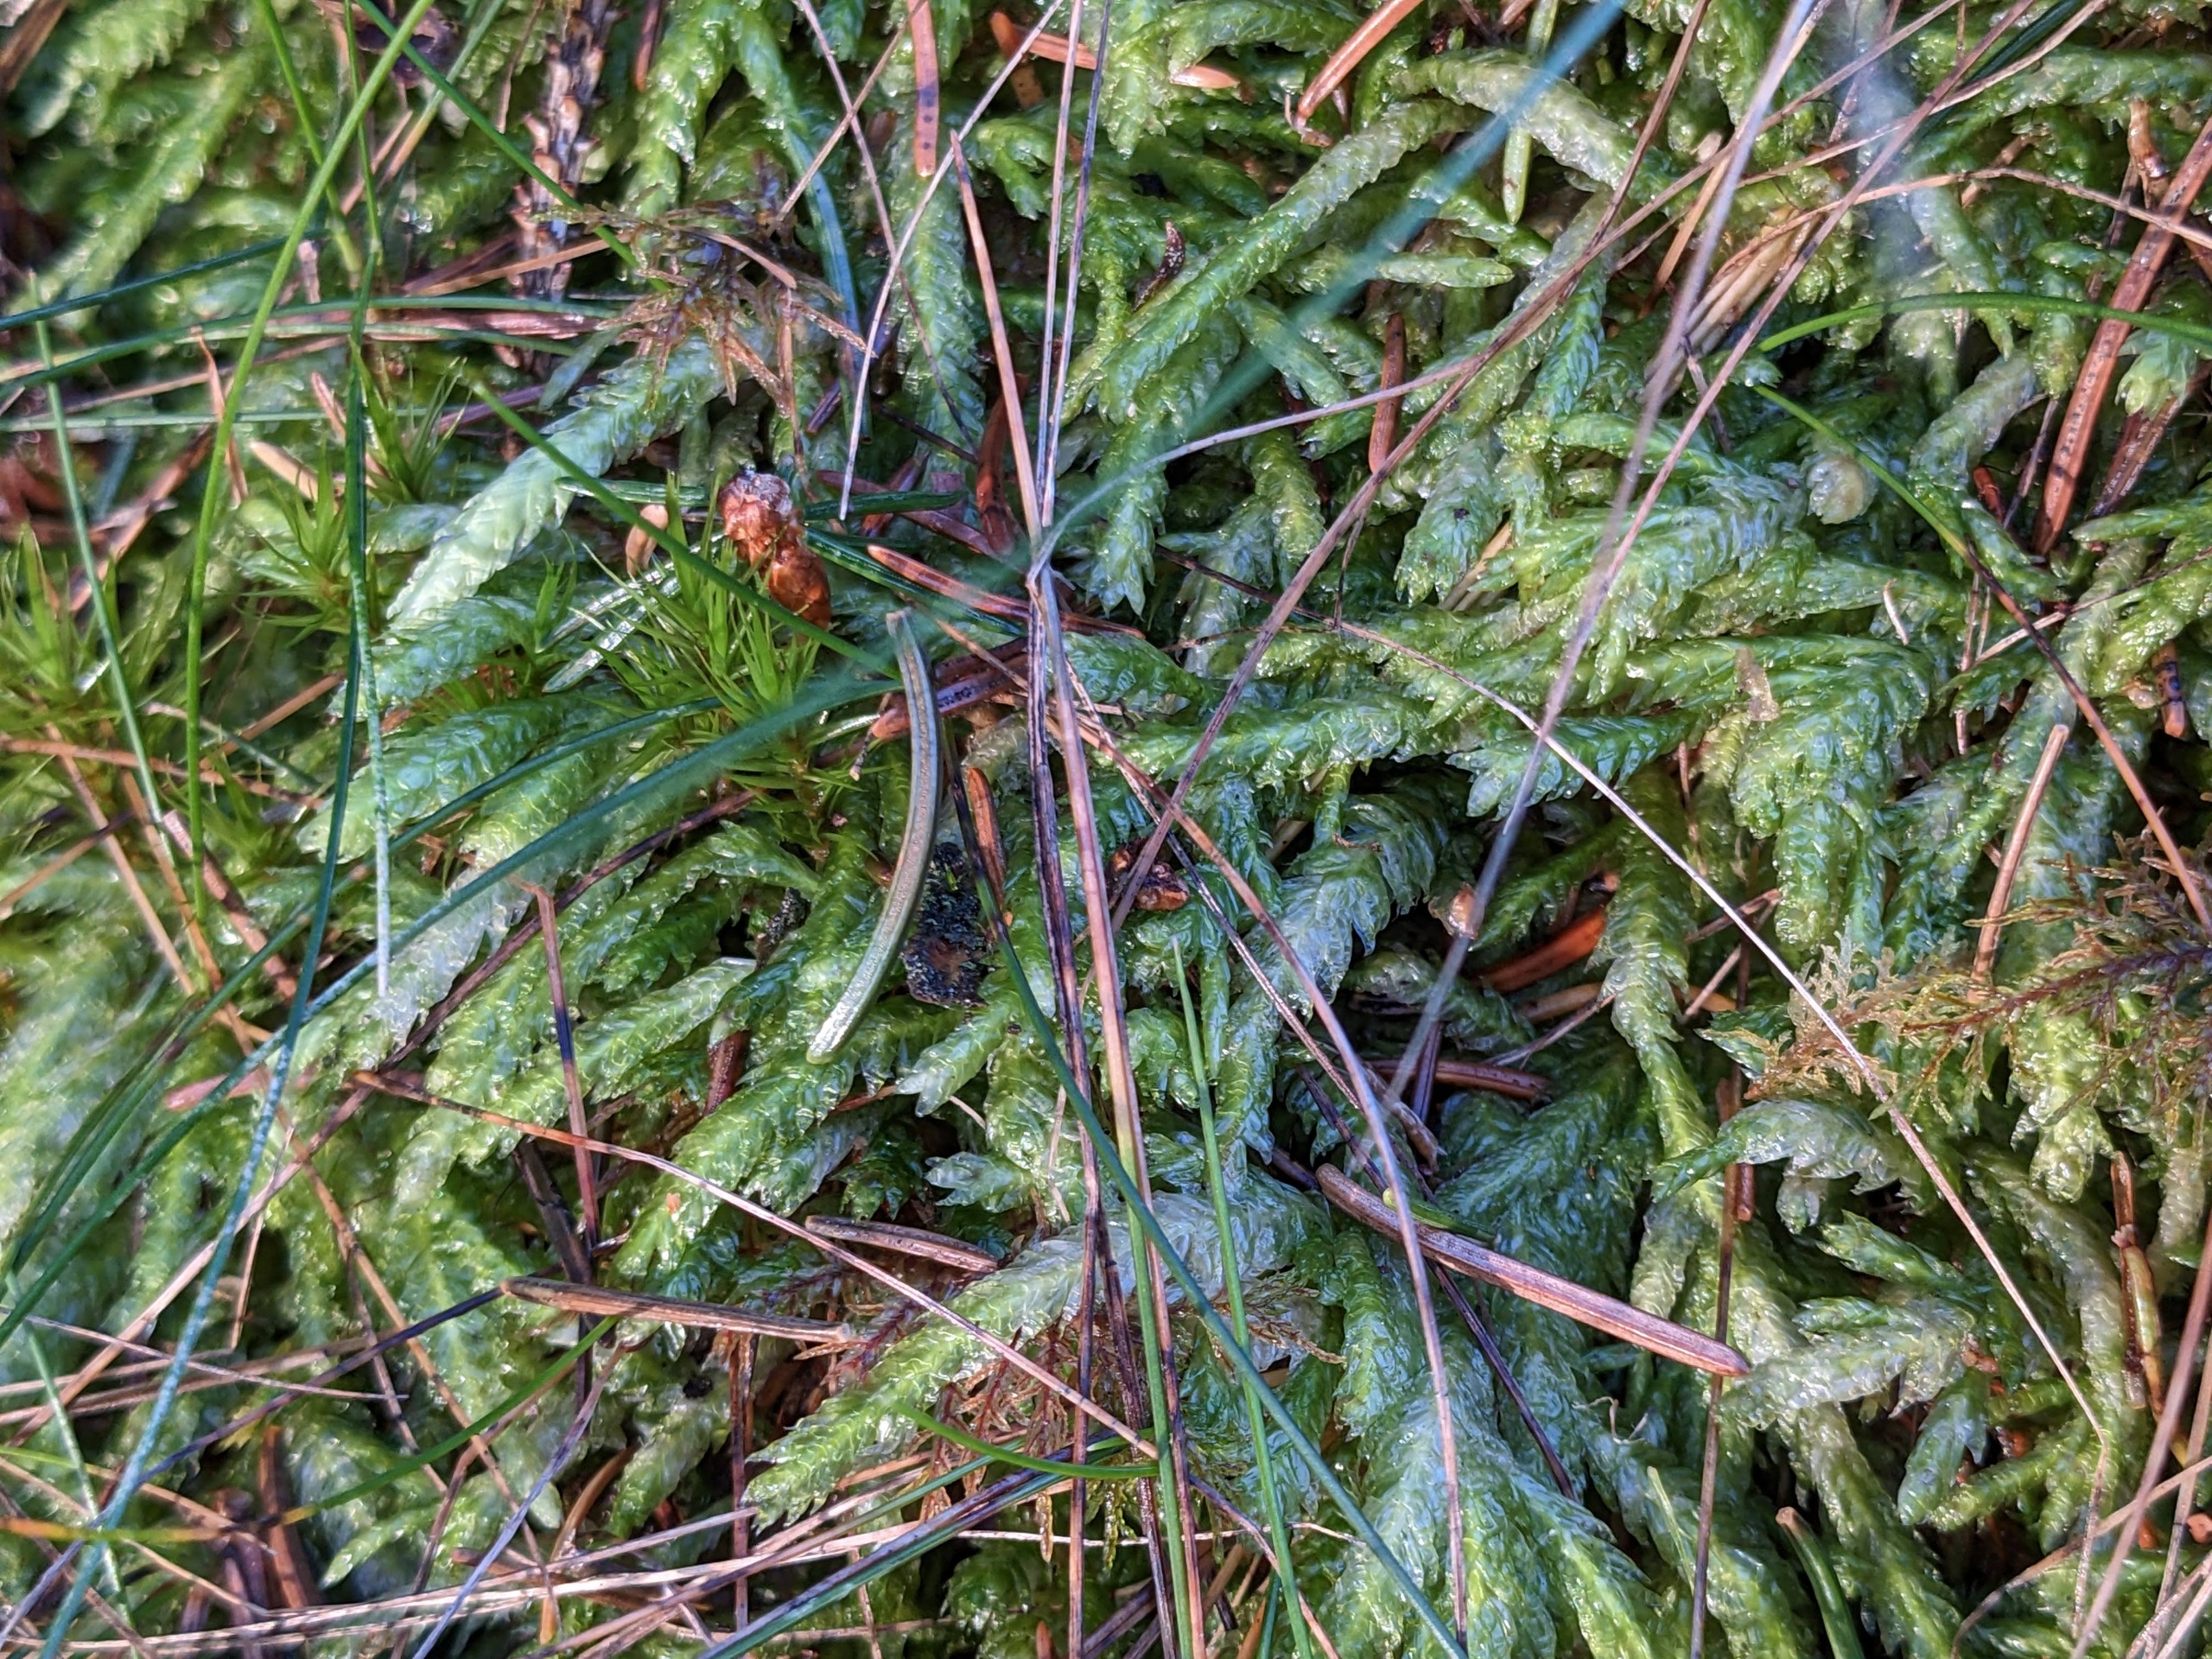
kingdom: Plantae
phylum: Bryophyta
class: Bryopsida
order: Hypnales
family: Plagiotheciaceae
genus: Plagiothecium
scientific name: Plagiothecium undulatum
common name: Bølget tæppemos
